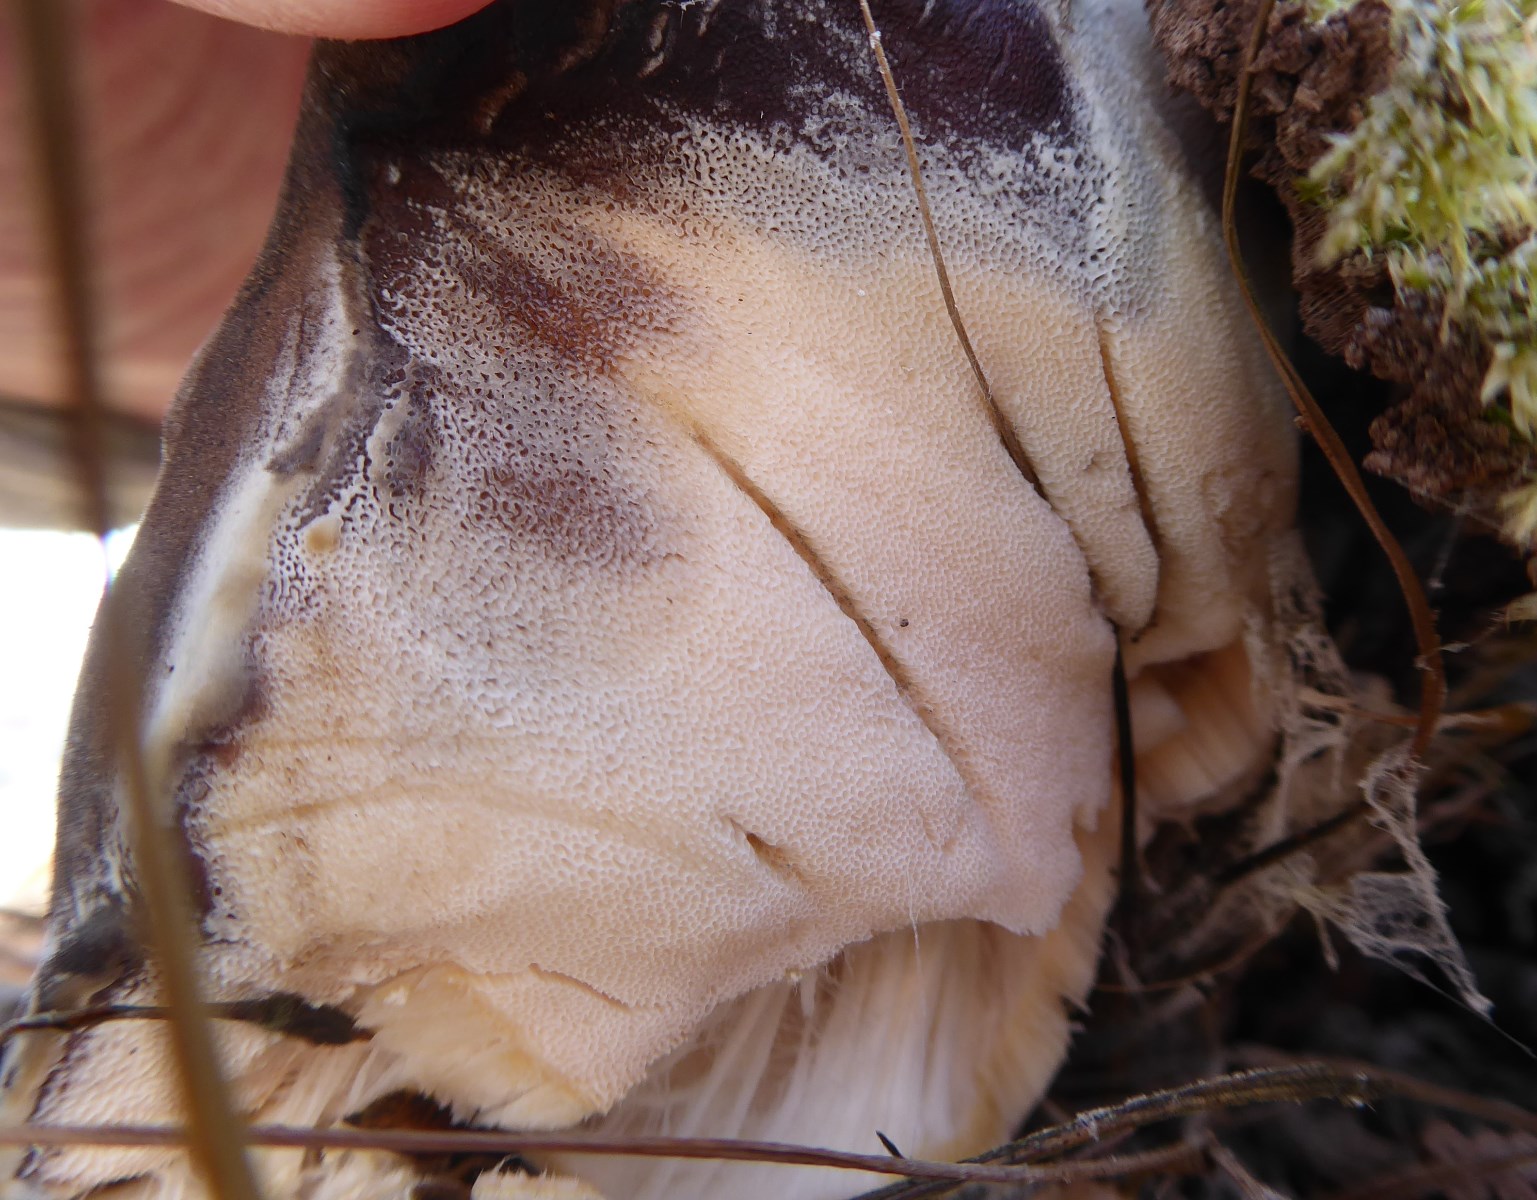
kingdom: Fungi
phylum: Basidiomycota
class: Agaricomycetes
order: Polyporales
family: Meripilaceae
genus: Meripilus
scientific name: Meripilus giganteus
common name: kæmpeporesvamp
